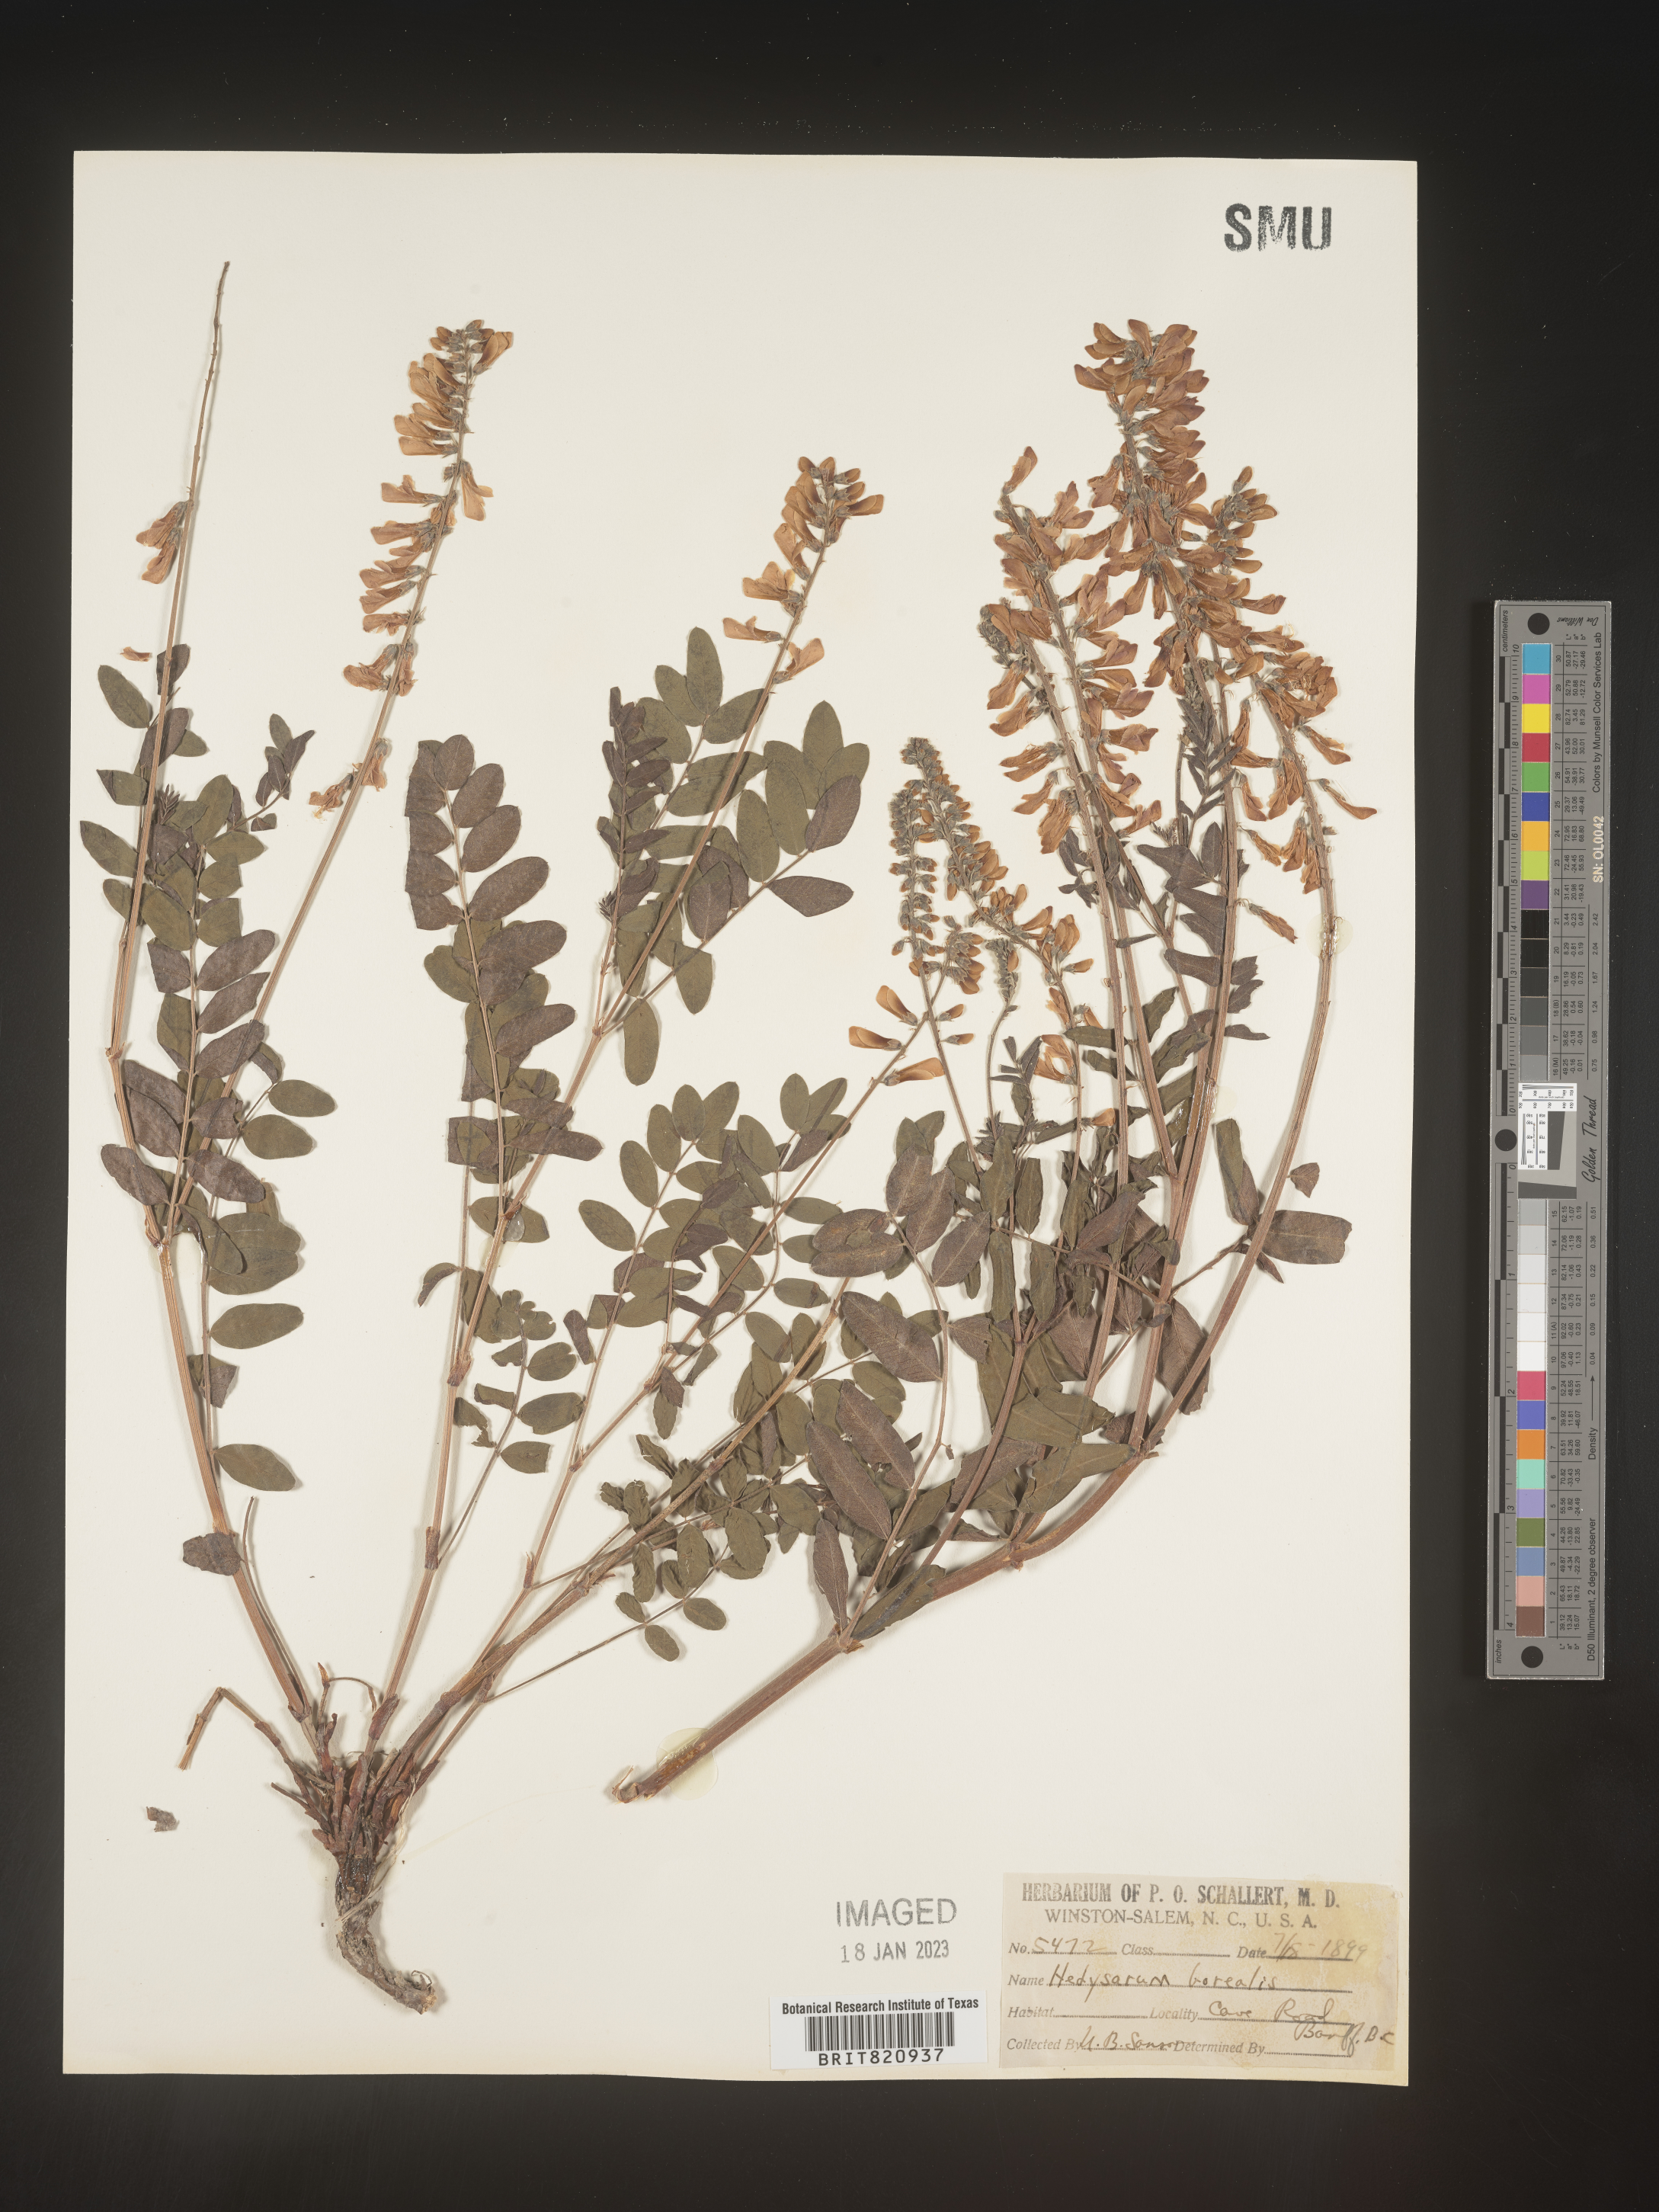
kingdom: Plantae
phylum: Tracheophyta
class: Magnoliopsida
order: Fabales
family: Fabaceae
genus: Hedysarum
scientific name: Hedysarum boreale
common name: Northern sweet-vetch
